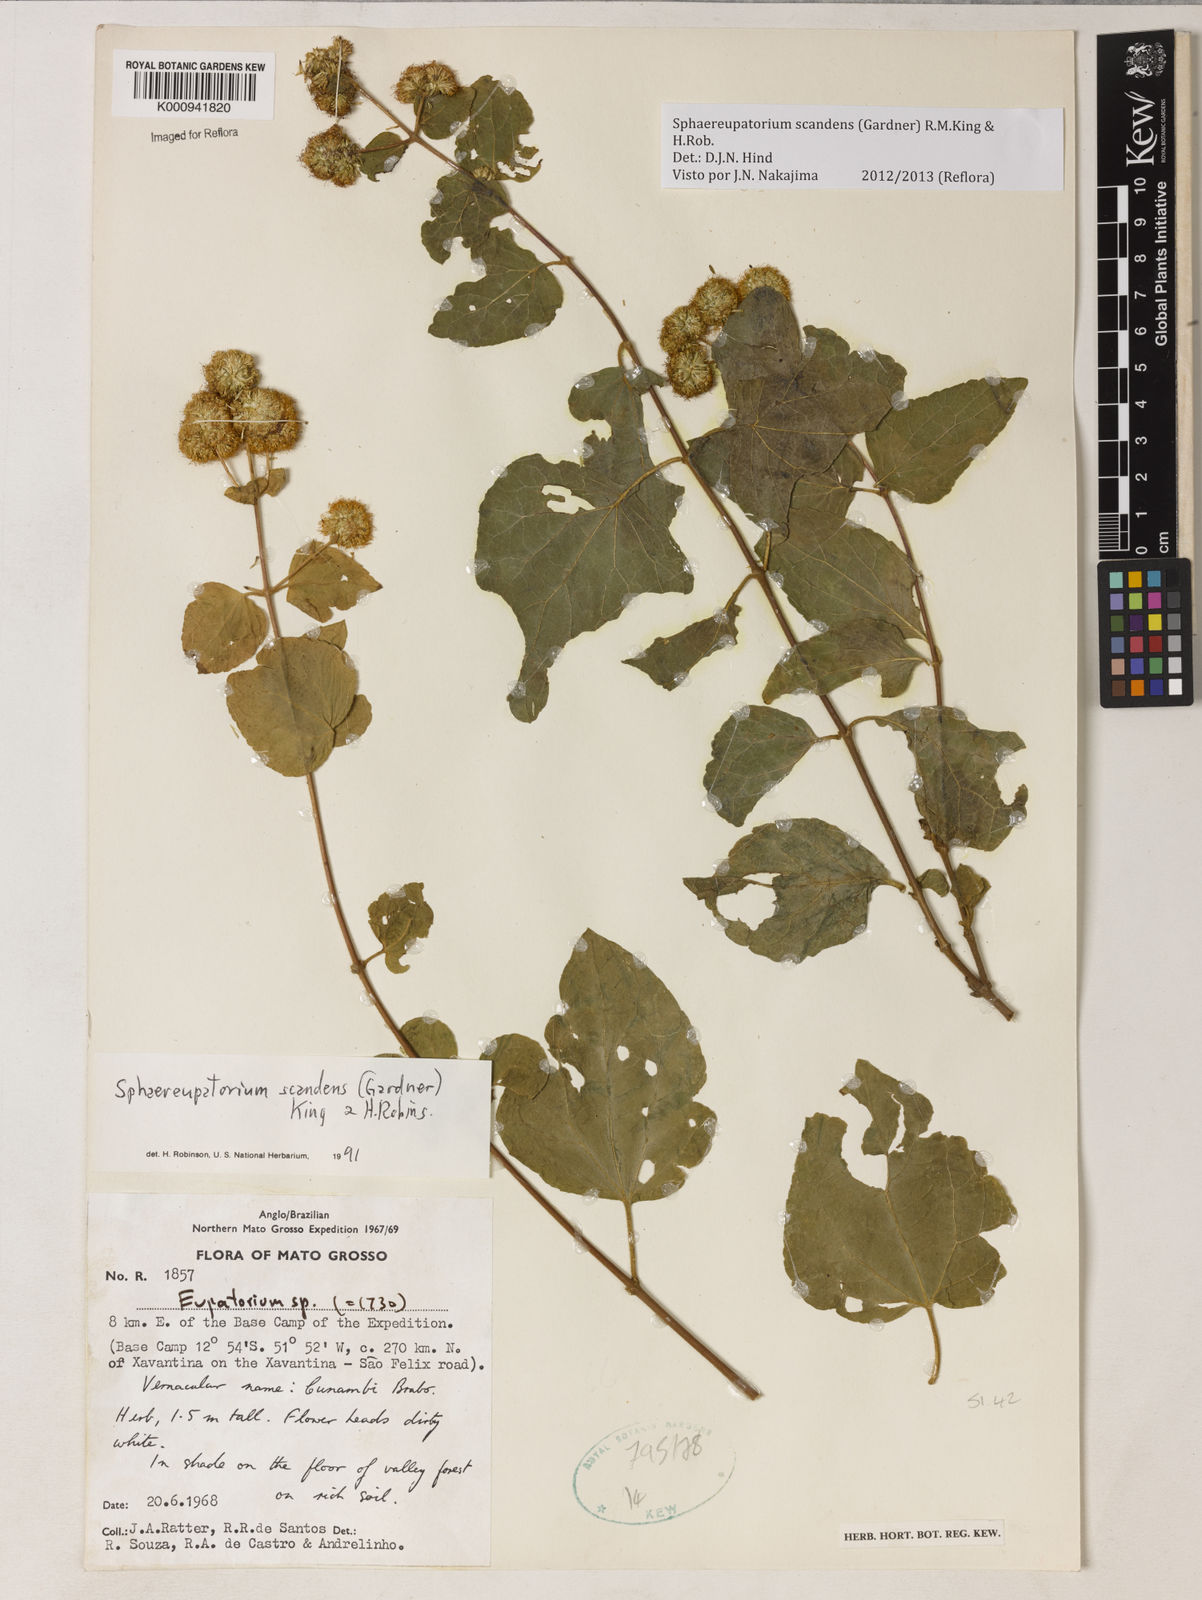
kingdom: Plantae
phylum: Tracheophyta
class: Magnoliopsida
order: Asterales
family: Asteraceae
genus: Sphaereupatorium
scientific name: Sphaereupatorium scandens
